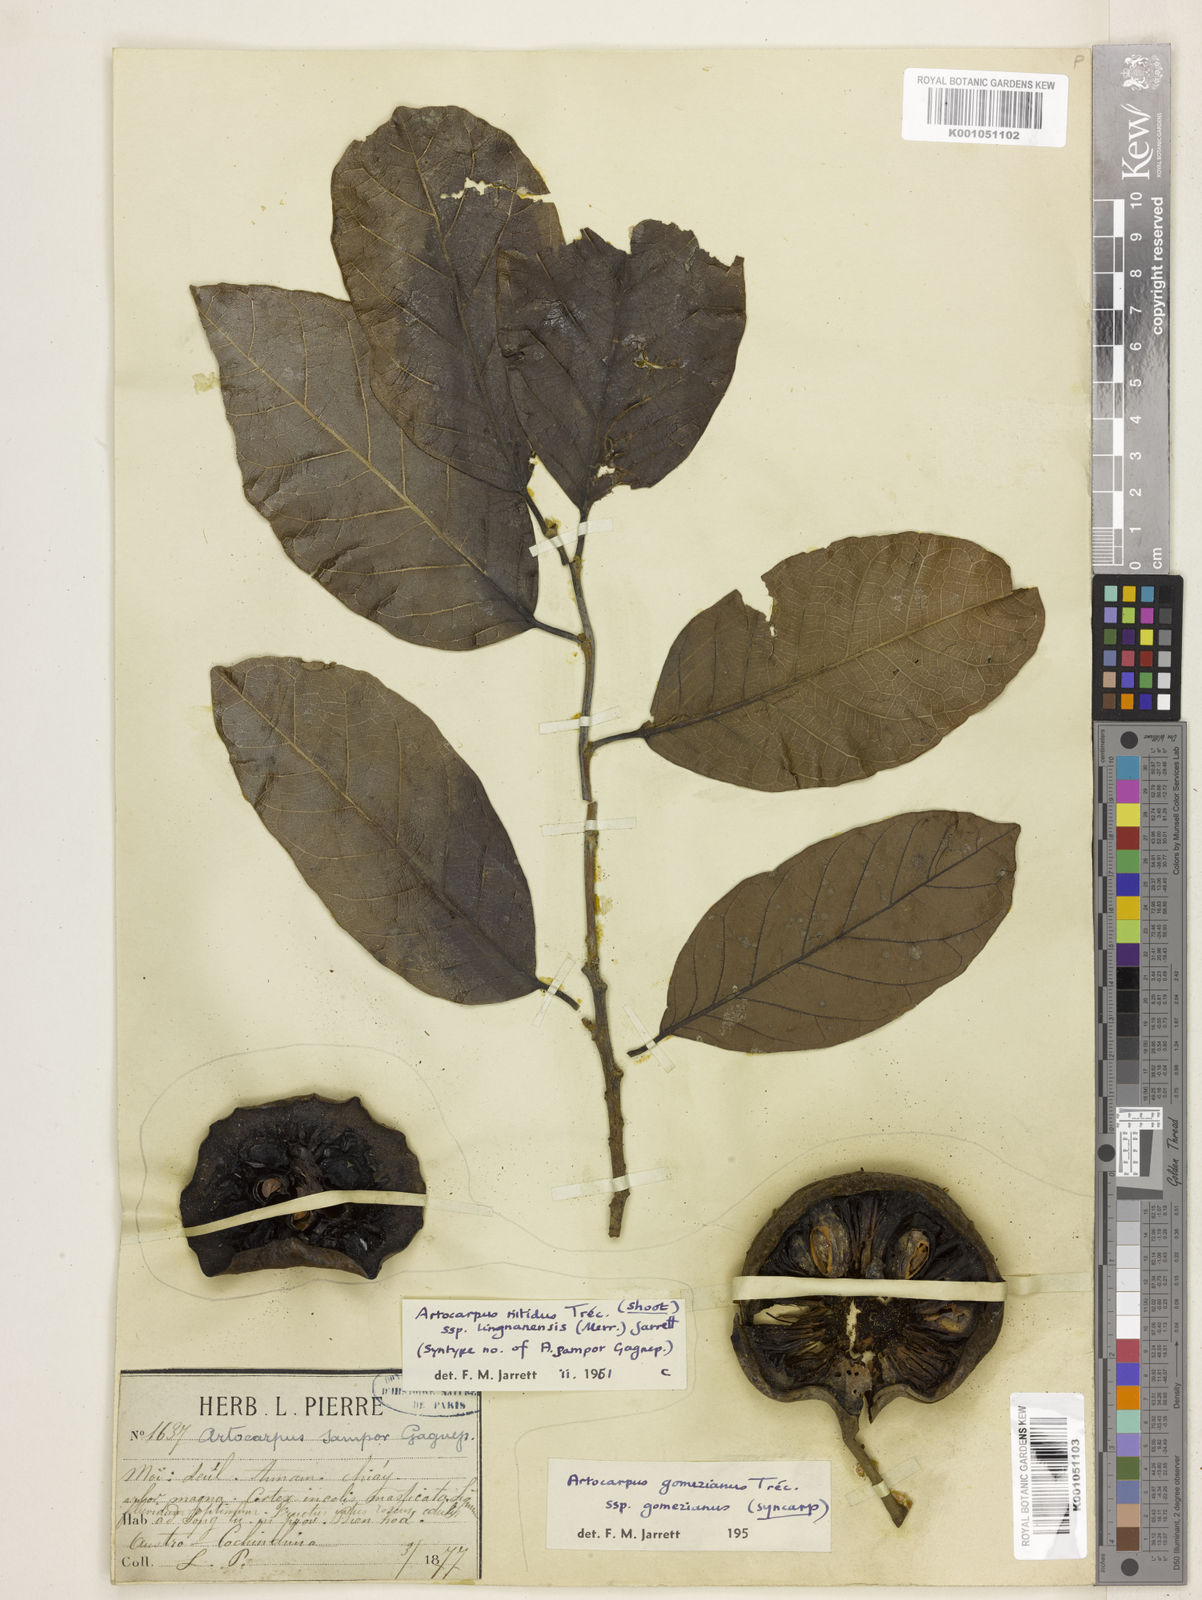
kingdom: Plantae
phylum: Tracheophyta
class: Magnoliopsida
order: Rosales
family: Moraceae
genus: Artocarpus
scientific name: Artocarpus
